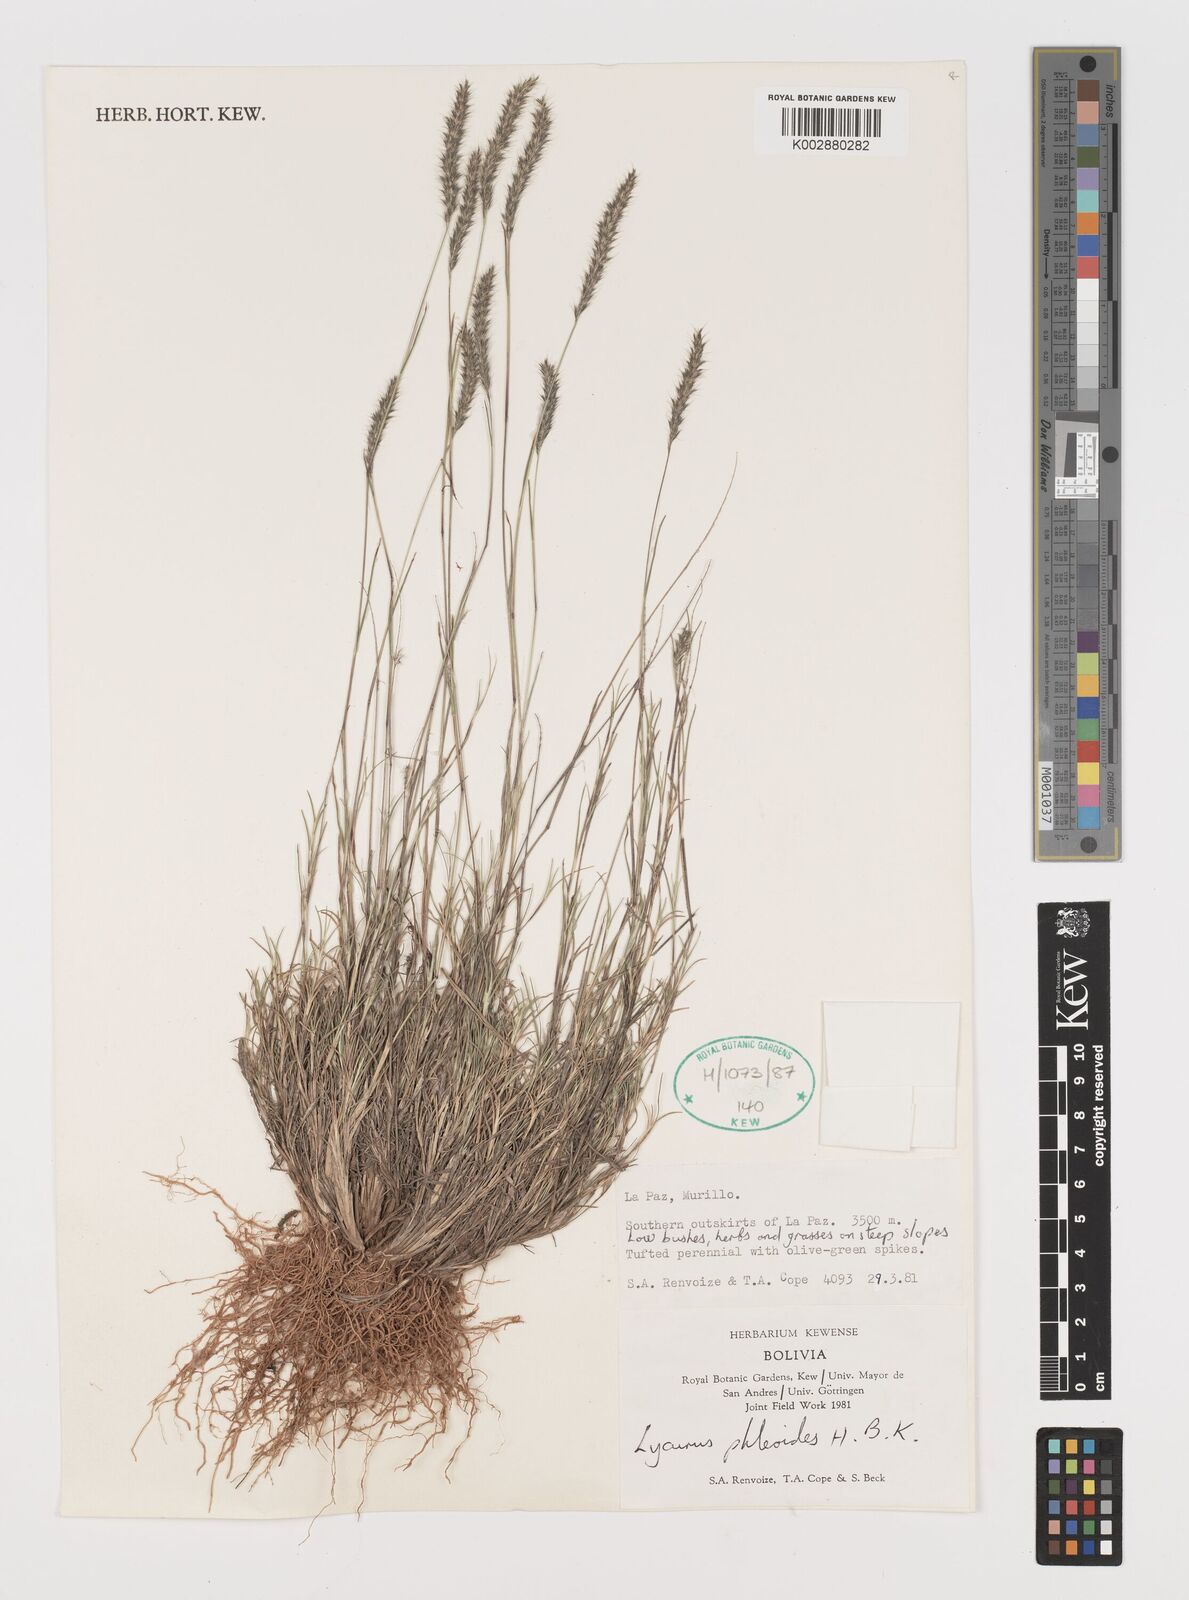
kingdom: Plantae
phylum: Tracheophyta
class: Liliopsida
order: Poales
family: Poaceae
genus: Muhlenbergia
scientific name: Muhlenbergia phleoides
